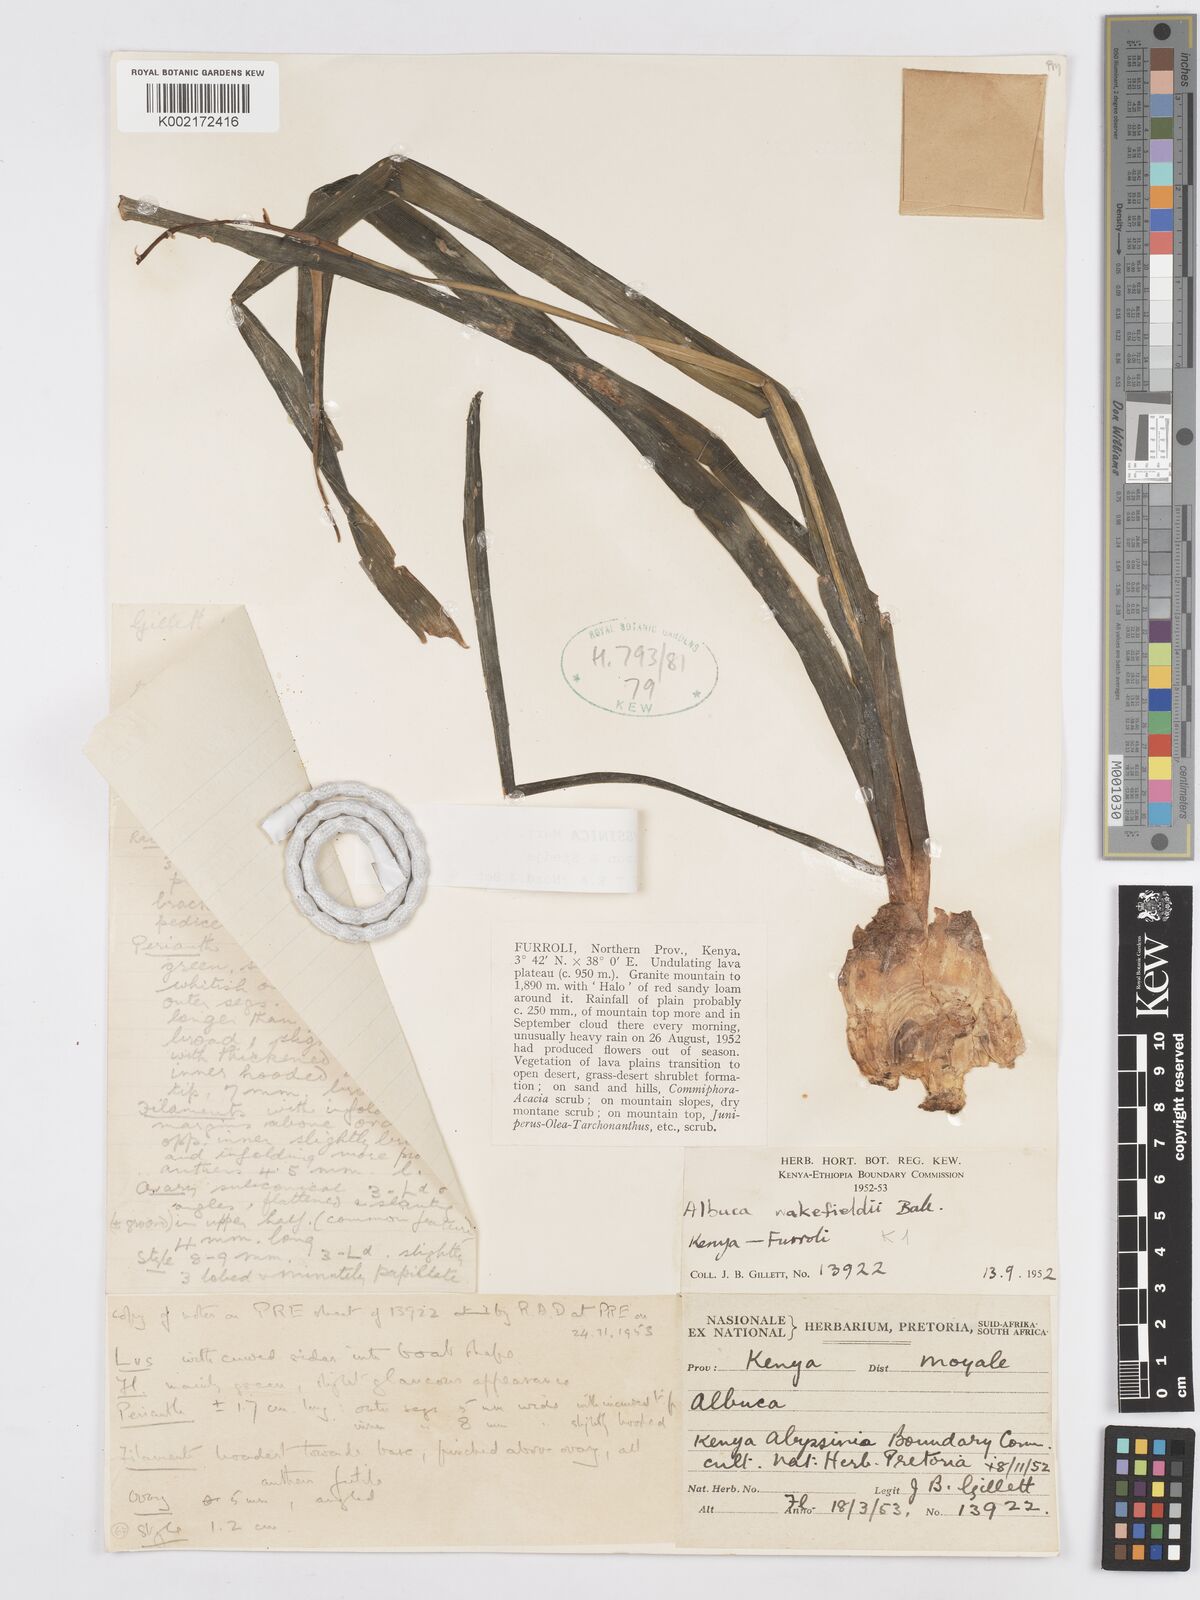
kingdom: Plantae
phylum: Tracheophyta
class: Liliopsida
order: Asparagales
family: Asparagaceae
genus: Albuca
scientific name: Albuca abyssinica
